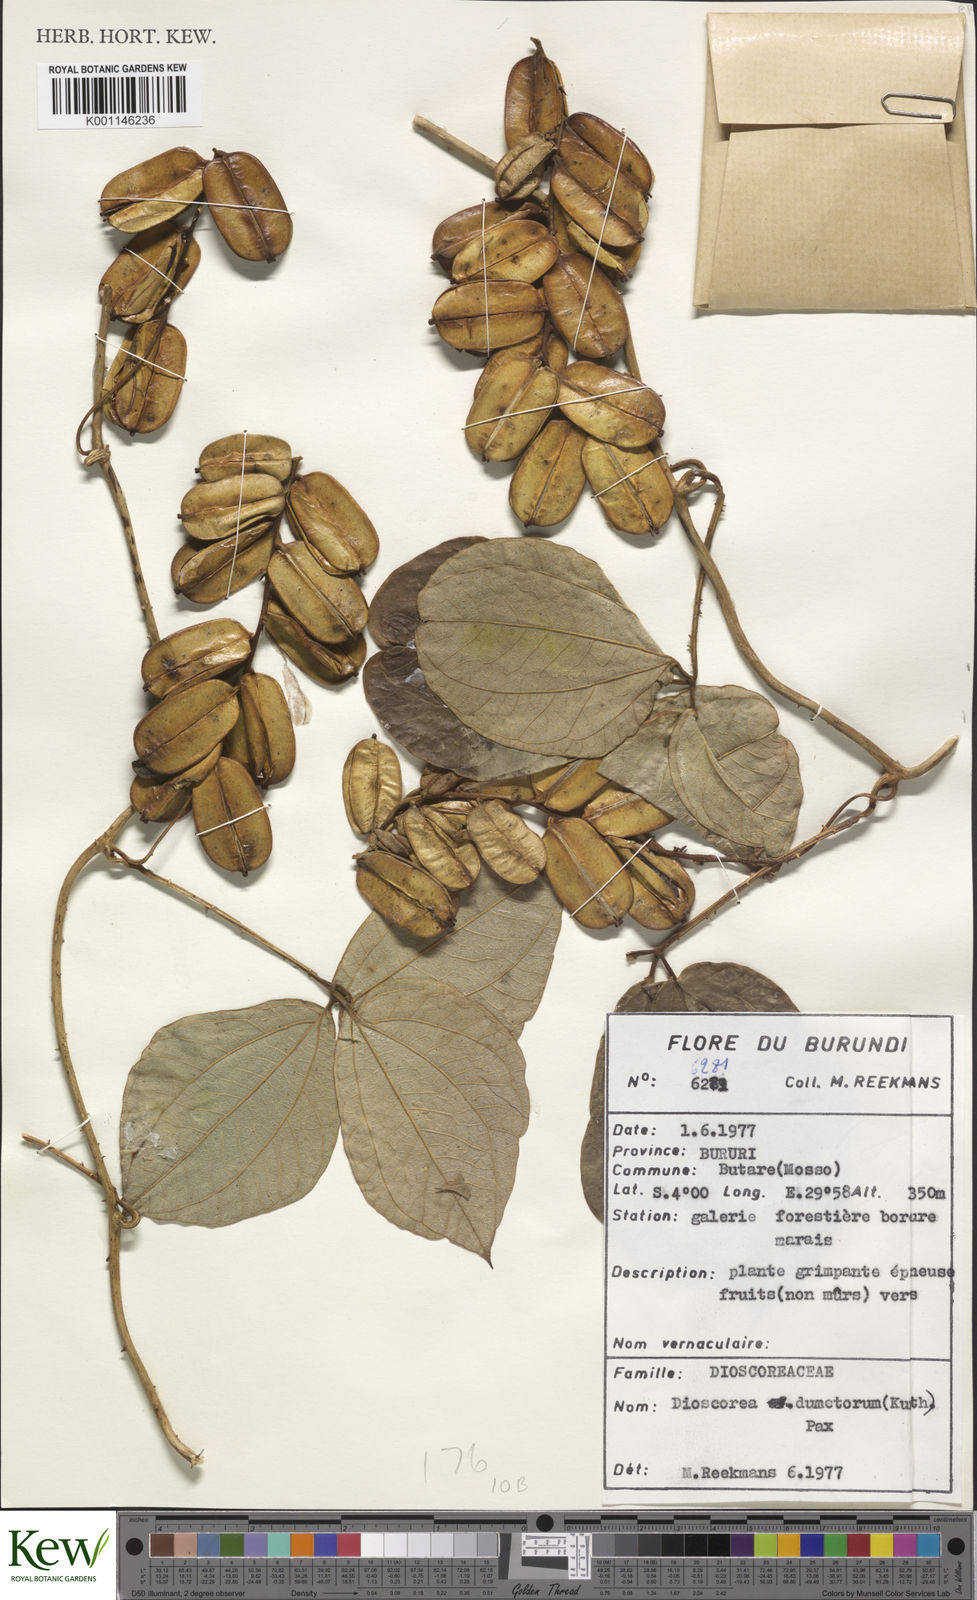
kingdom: Plantae
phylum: Tracheophyta
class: Liliopsida
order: Dioscoreales
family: Dioscoreaceae
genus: Dioscorea
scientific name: Dioscorea dumetorum
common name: African bitter yam
